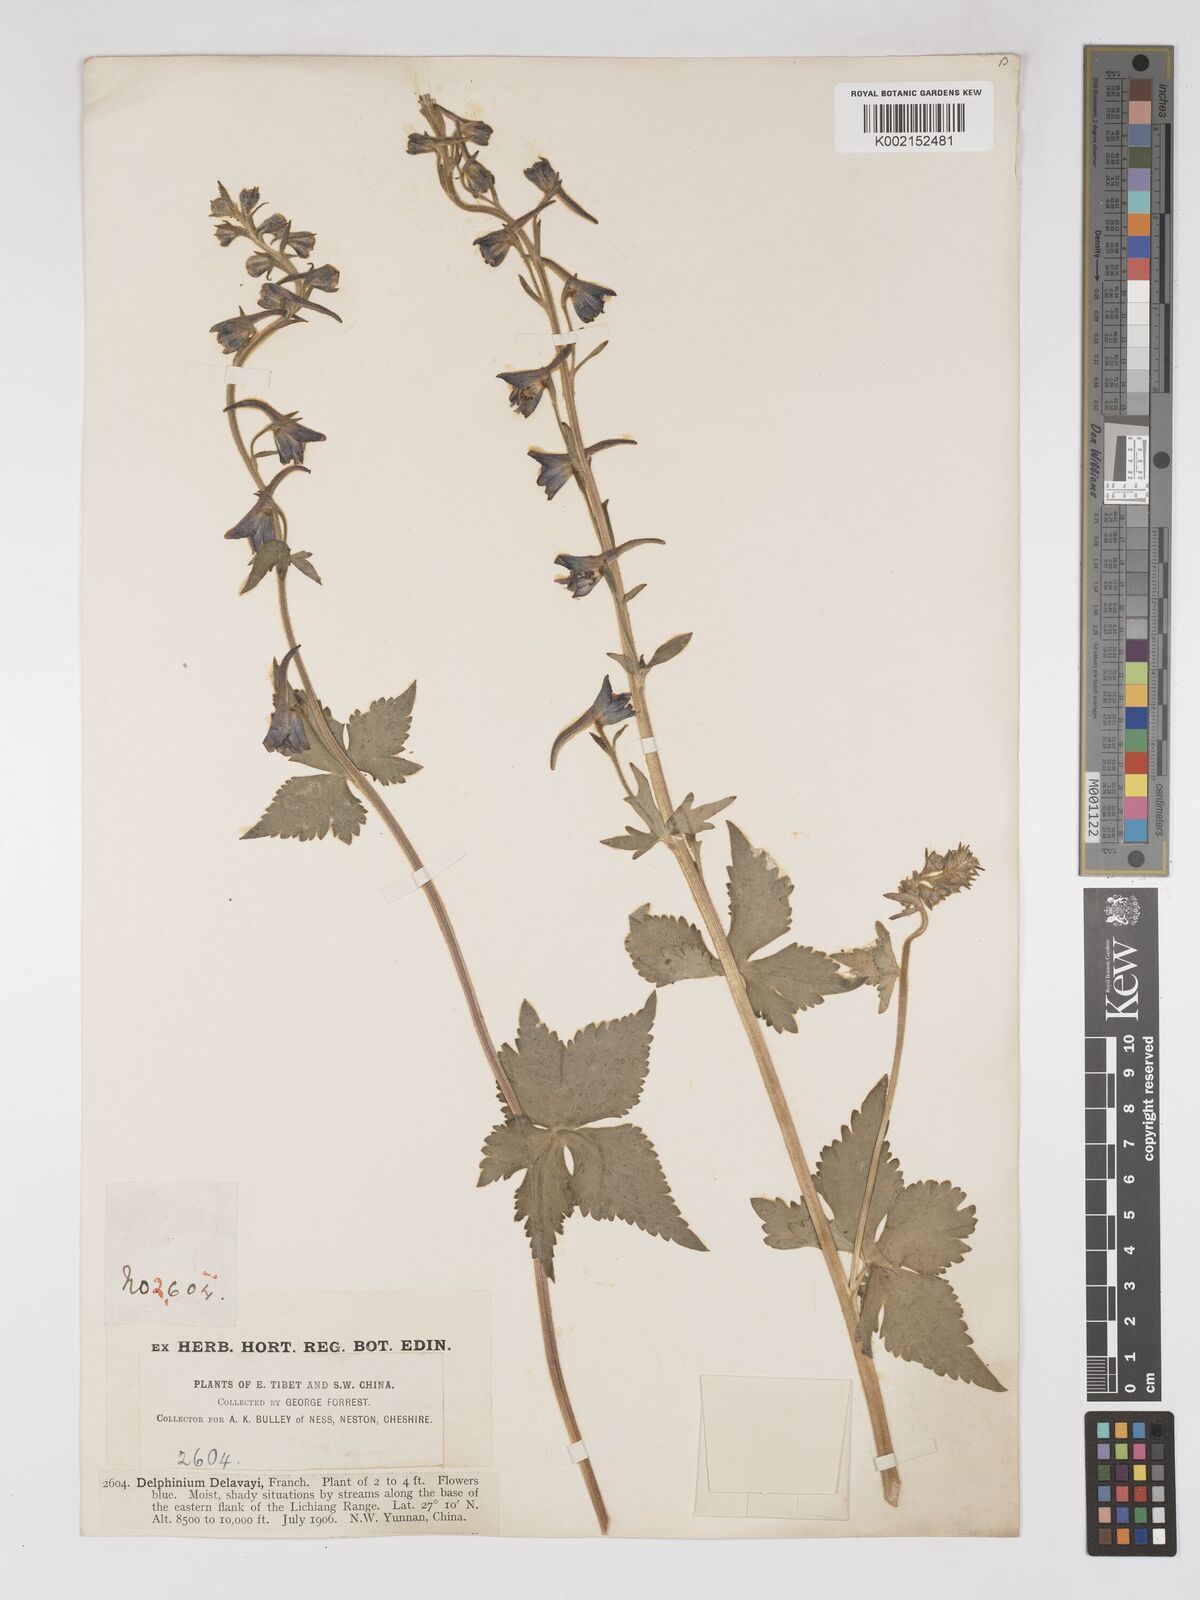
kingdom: Plantae
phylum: Tracheophyta
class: Magnoliopsida
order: Ranunculales
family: Ranunculaceae
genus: Delphinium
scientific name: Delphinium delavayi
